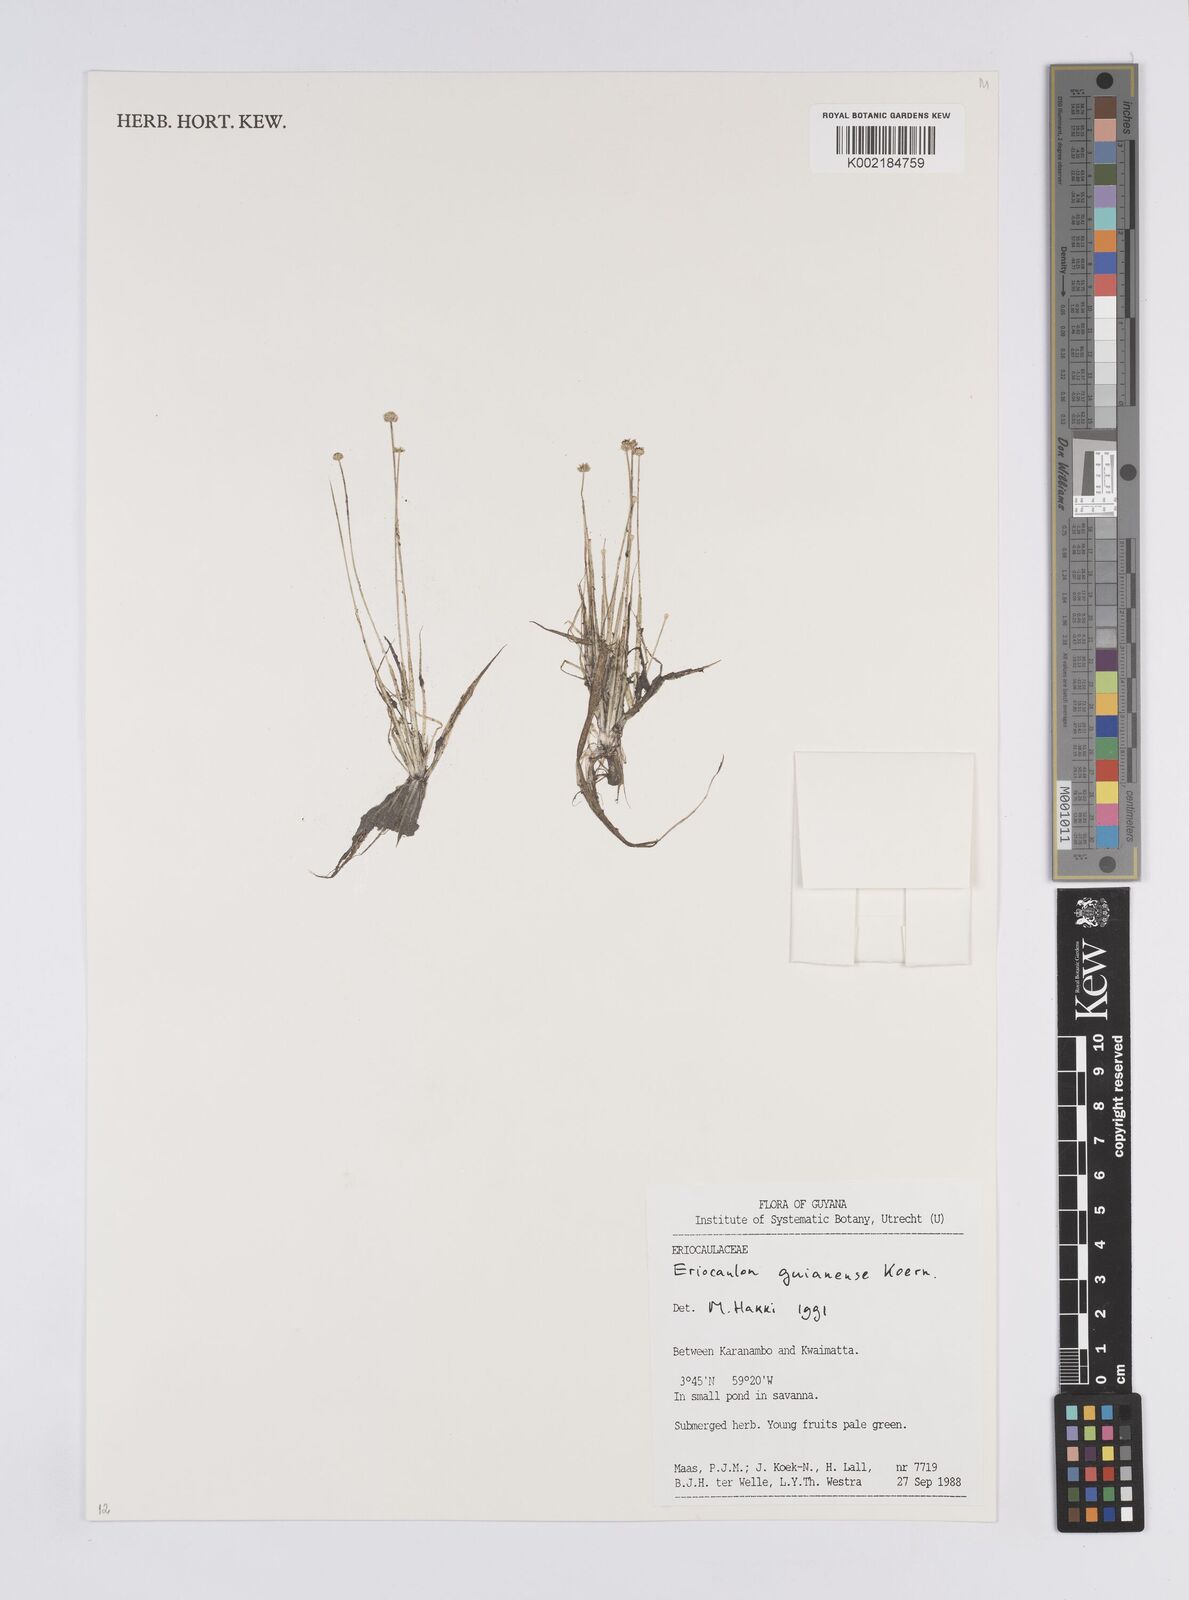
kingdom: Plantae
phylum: Tracheophyta
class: Liliopsida
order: Poales
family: Eriocaulaceae
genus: Eriocaulon
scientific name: Eriocaulon
